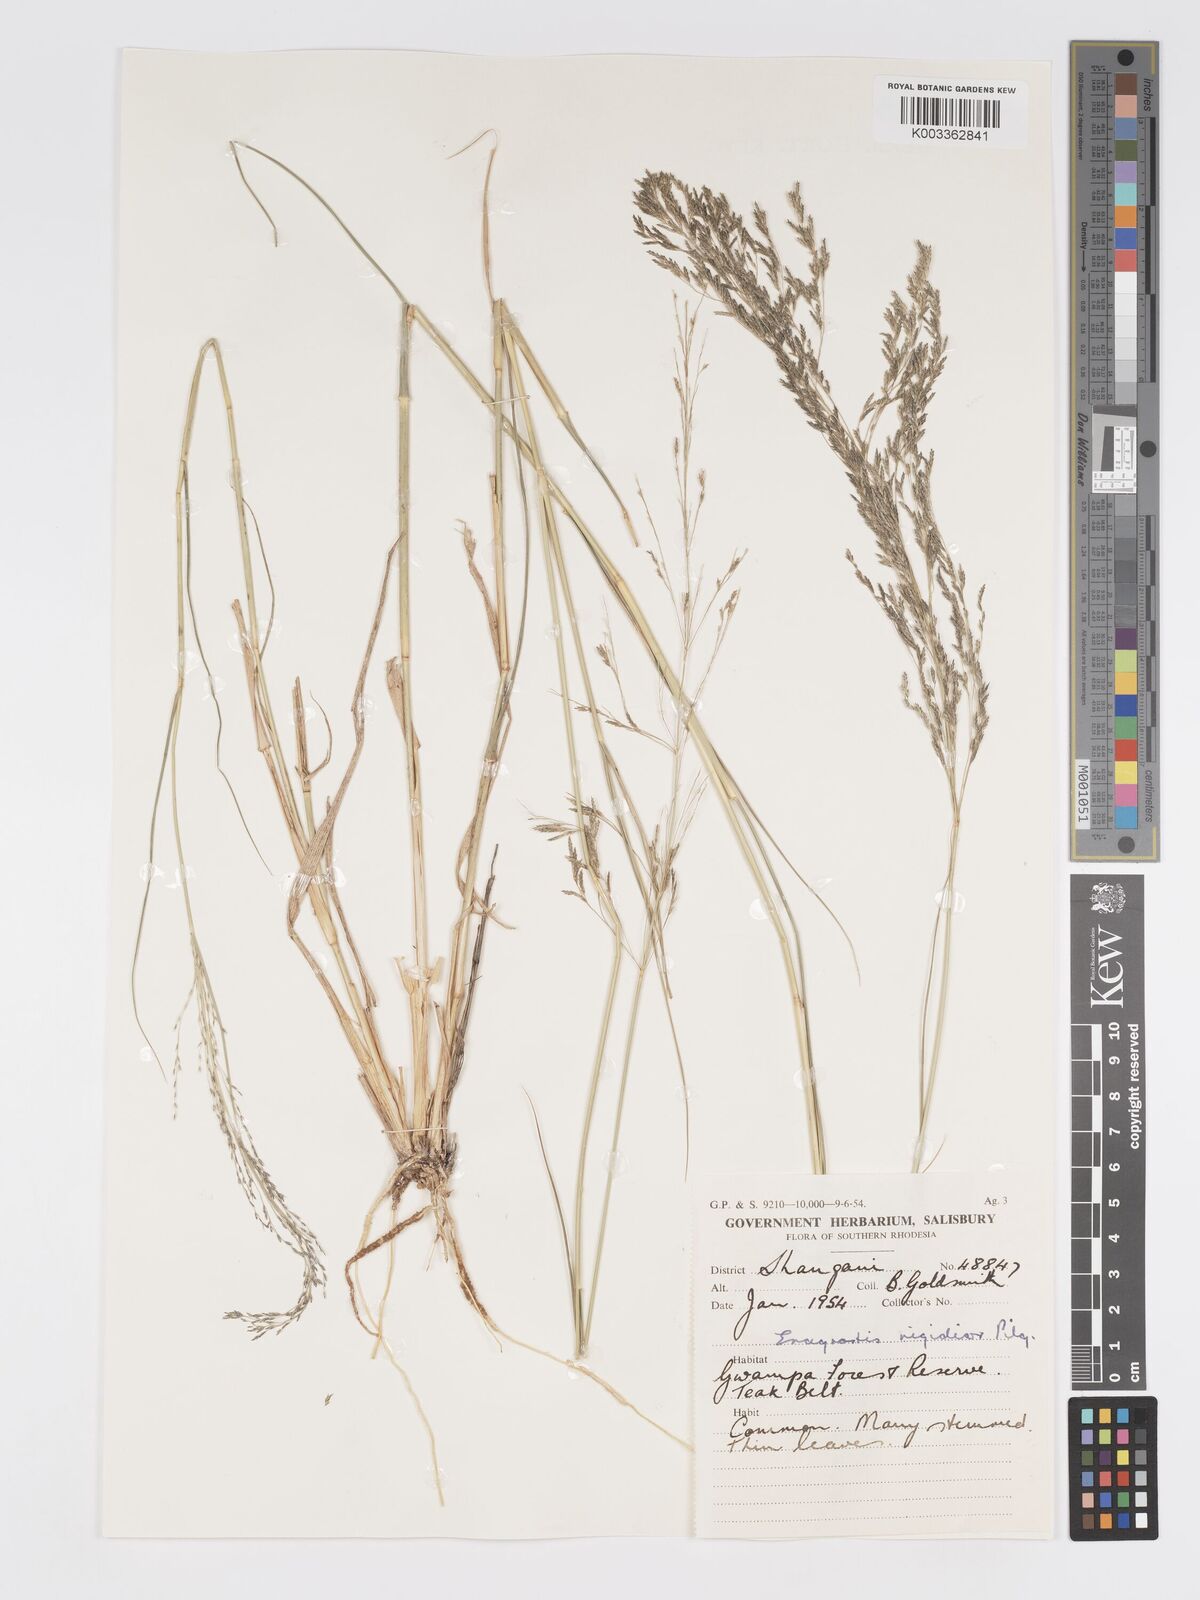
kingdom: Plantae
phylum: Tracheophyta
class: Liliopsida
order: Poales
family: Poaceae
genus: Eragrostis
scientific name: Eragrostis cylindriflora
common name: Cylinderflower lovegrass
